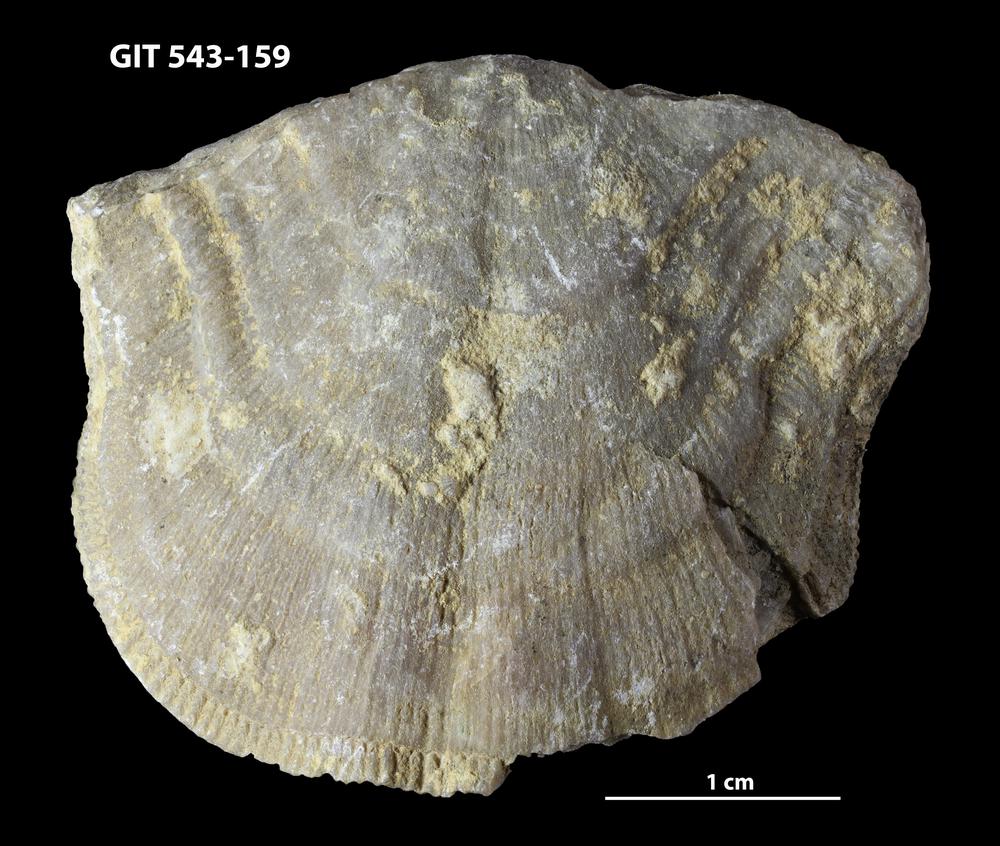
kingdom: Animalia
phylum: Brachiopoda
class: Rhynchonellata
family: Clitambonitidae
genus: Clinambon
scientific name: Clinambon anomalus
